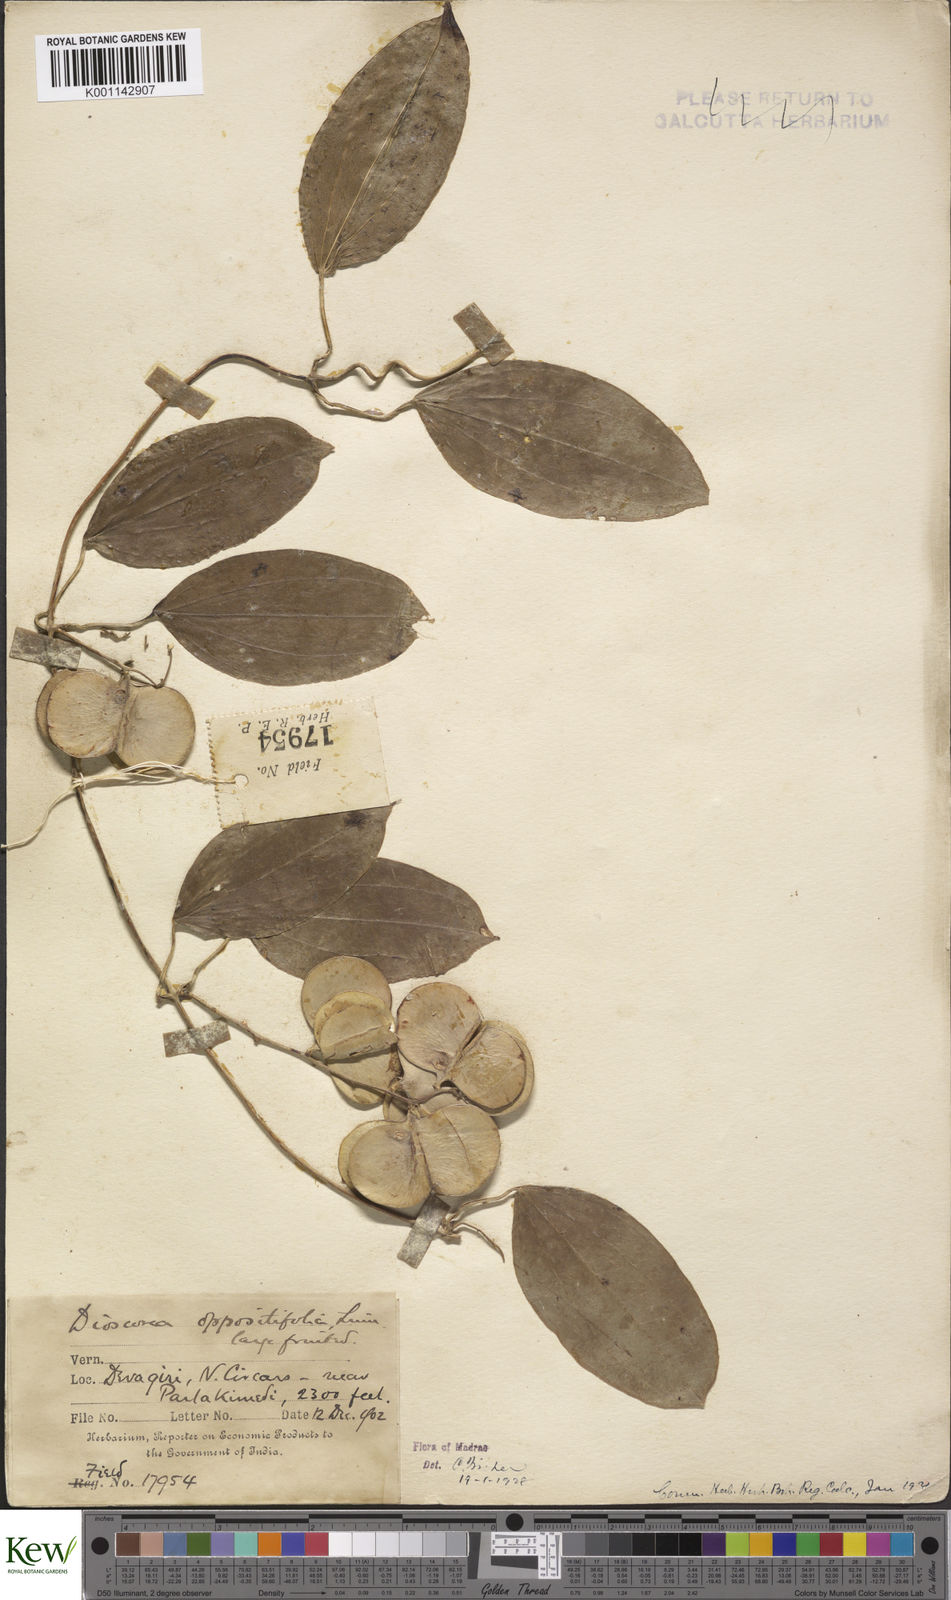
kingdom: Plantae
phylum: Tracheophyta
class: Liliopsida
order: Dioscoreales
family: Dioscoreaceae
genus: Dioscorea
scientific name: Dioscorea oppositifolia
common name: Chinese yam
